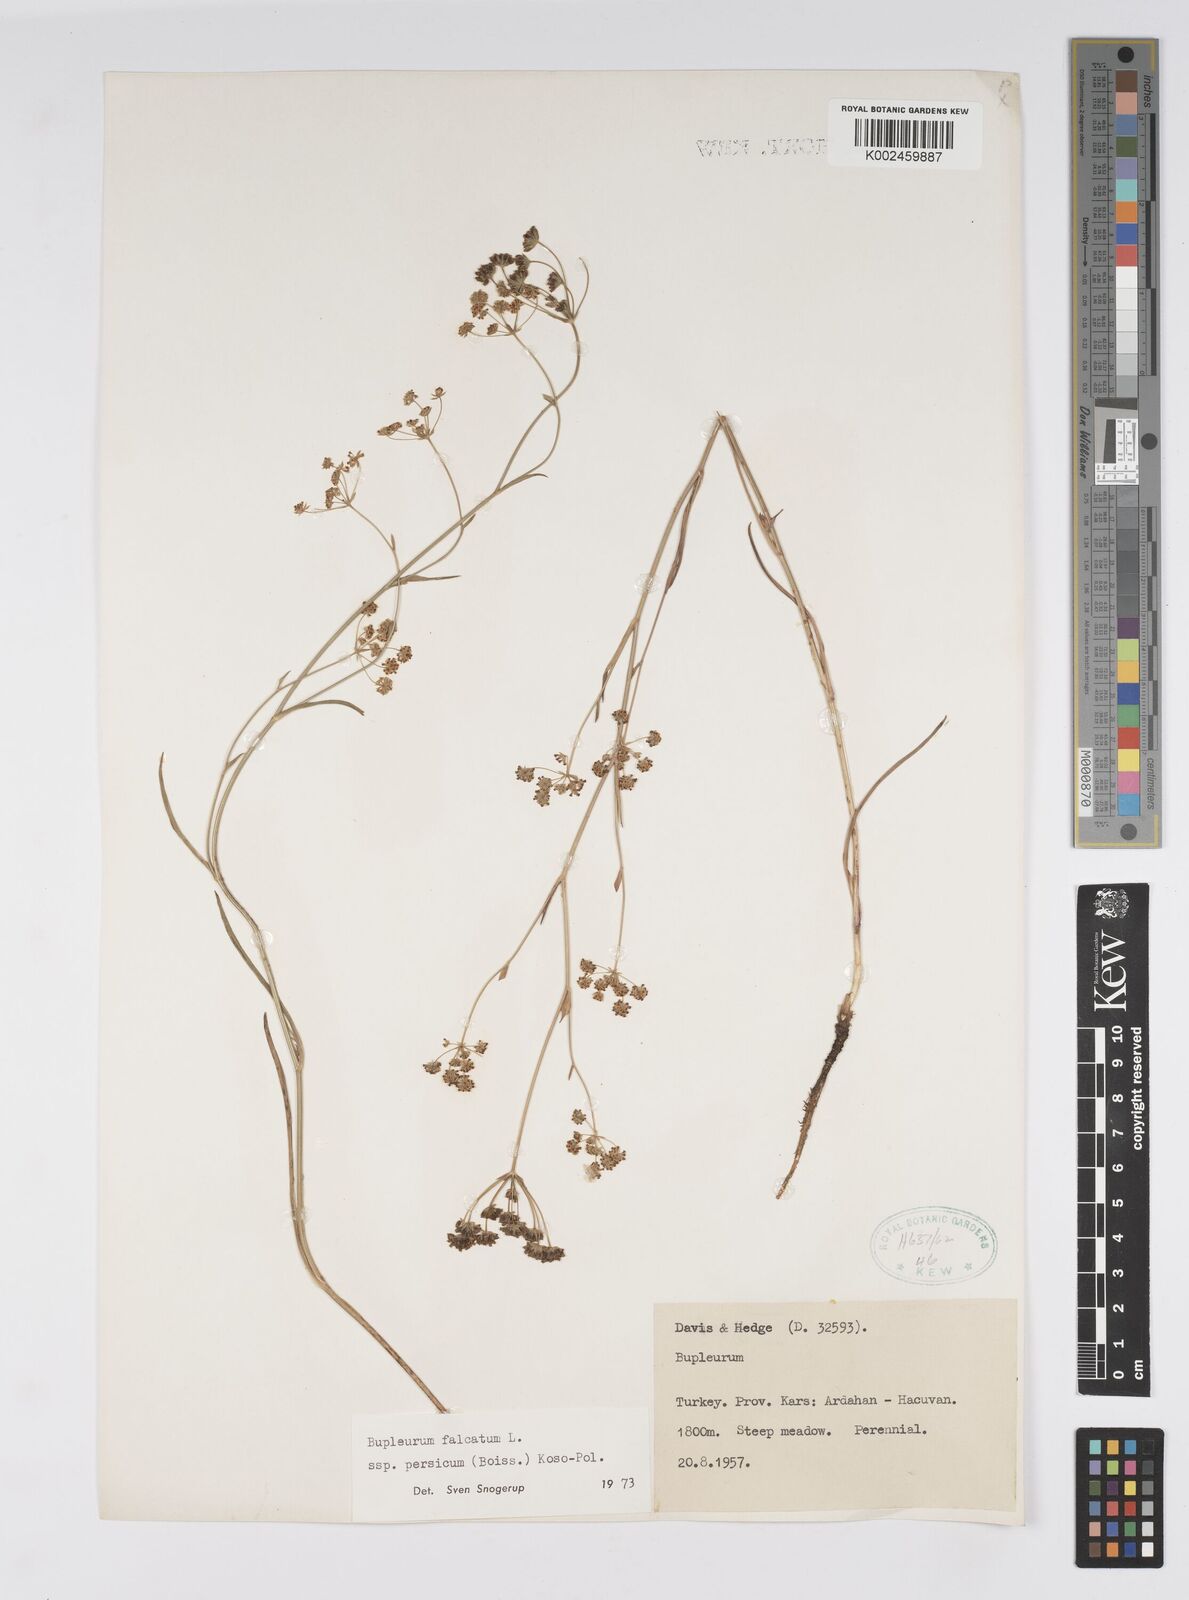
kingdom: Plantae
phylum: Tracheophyta
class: Magnoliopsida
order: Apiales
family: Apiaceae
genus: Bupleurum
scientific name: Bupleurum persicum
